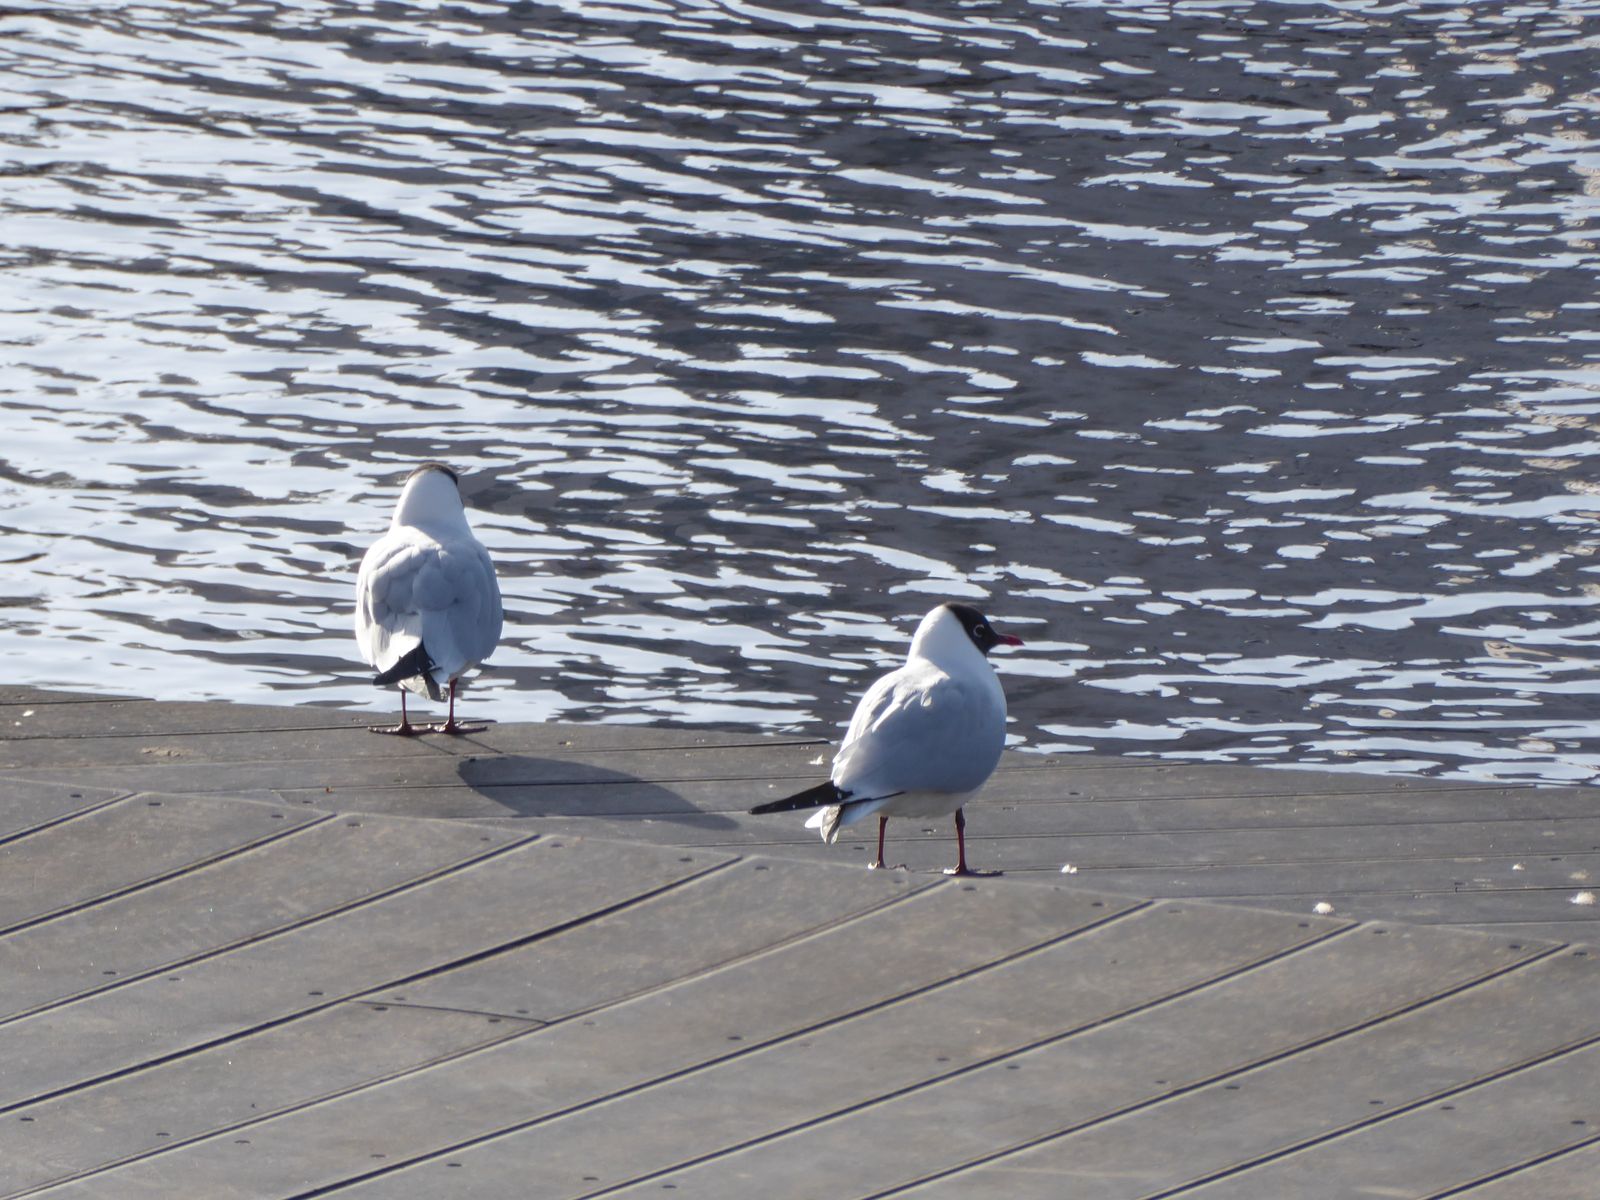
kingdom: Animalia
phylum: Chordata
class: Aves
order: Charadriiformes
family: Laridae
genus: Chroicocephalus
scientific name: Chroicocephalus ridibundus
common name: Black-headed gull
